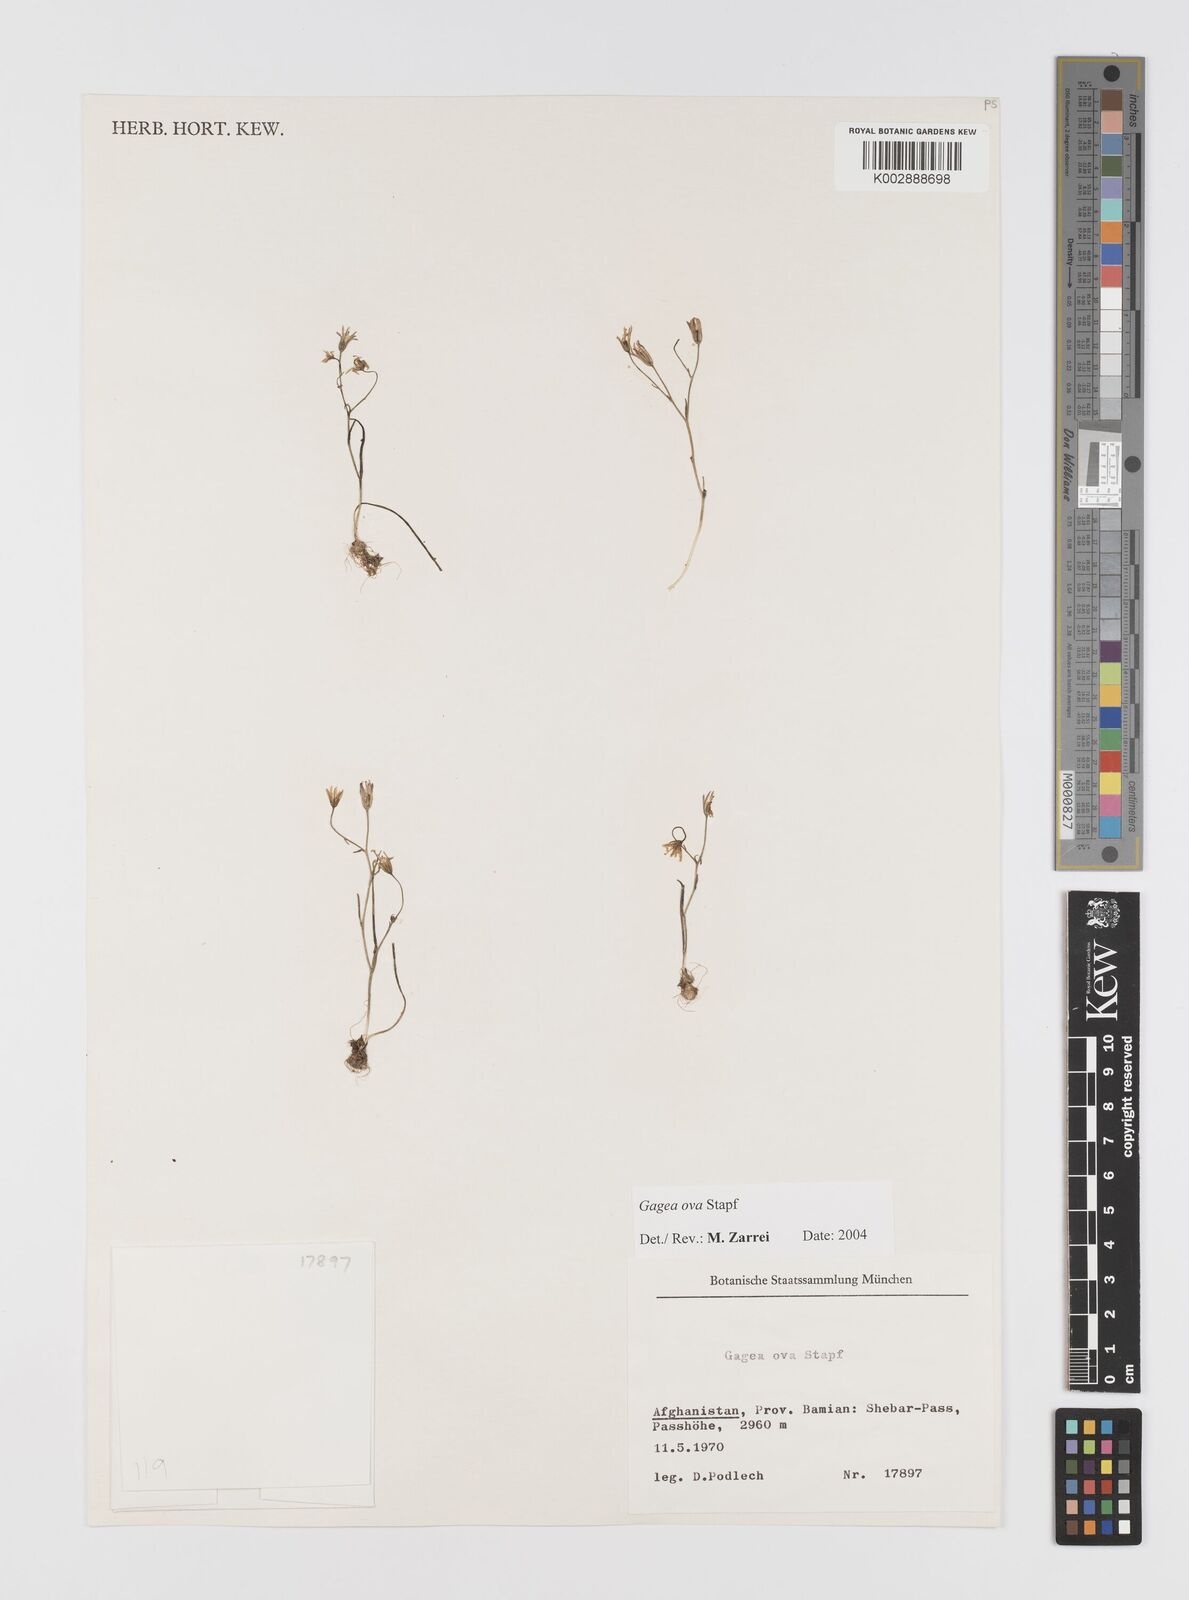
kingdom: Plantae
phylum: Tracheophyta
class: Liliopsida
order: Liliales
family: Liliaceae
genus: Gagea
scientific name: Gagea kunawurensis
